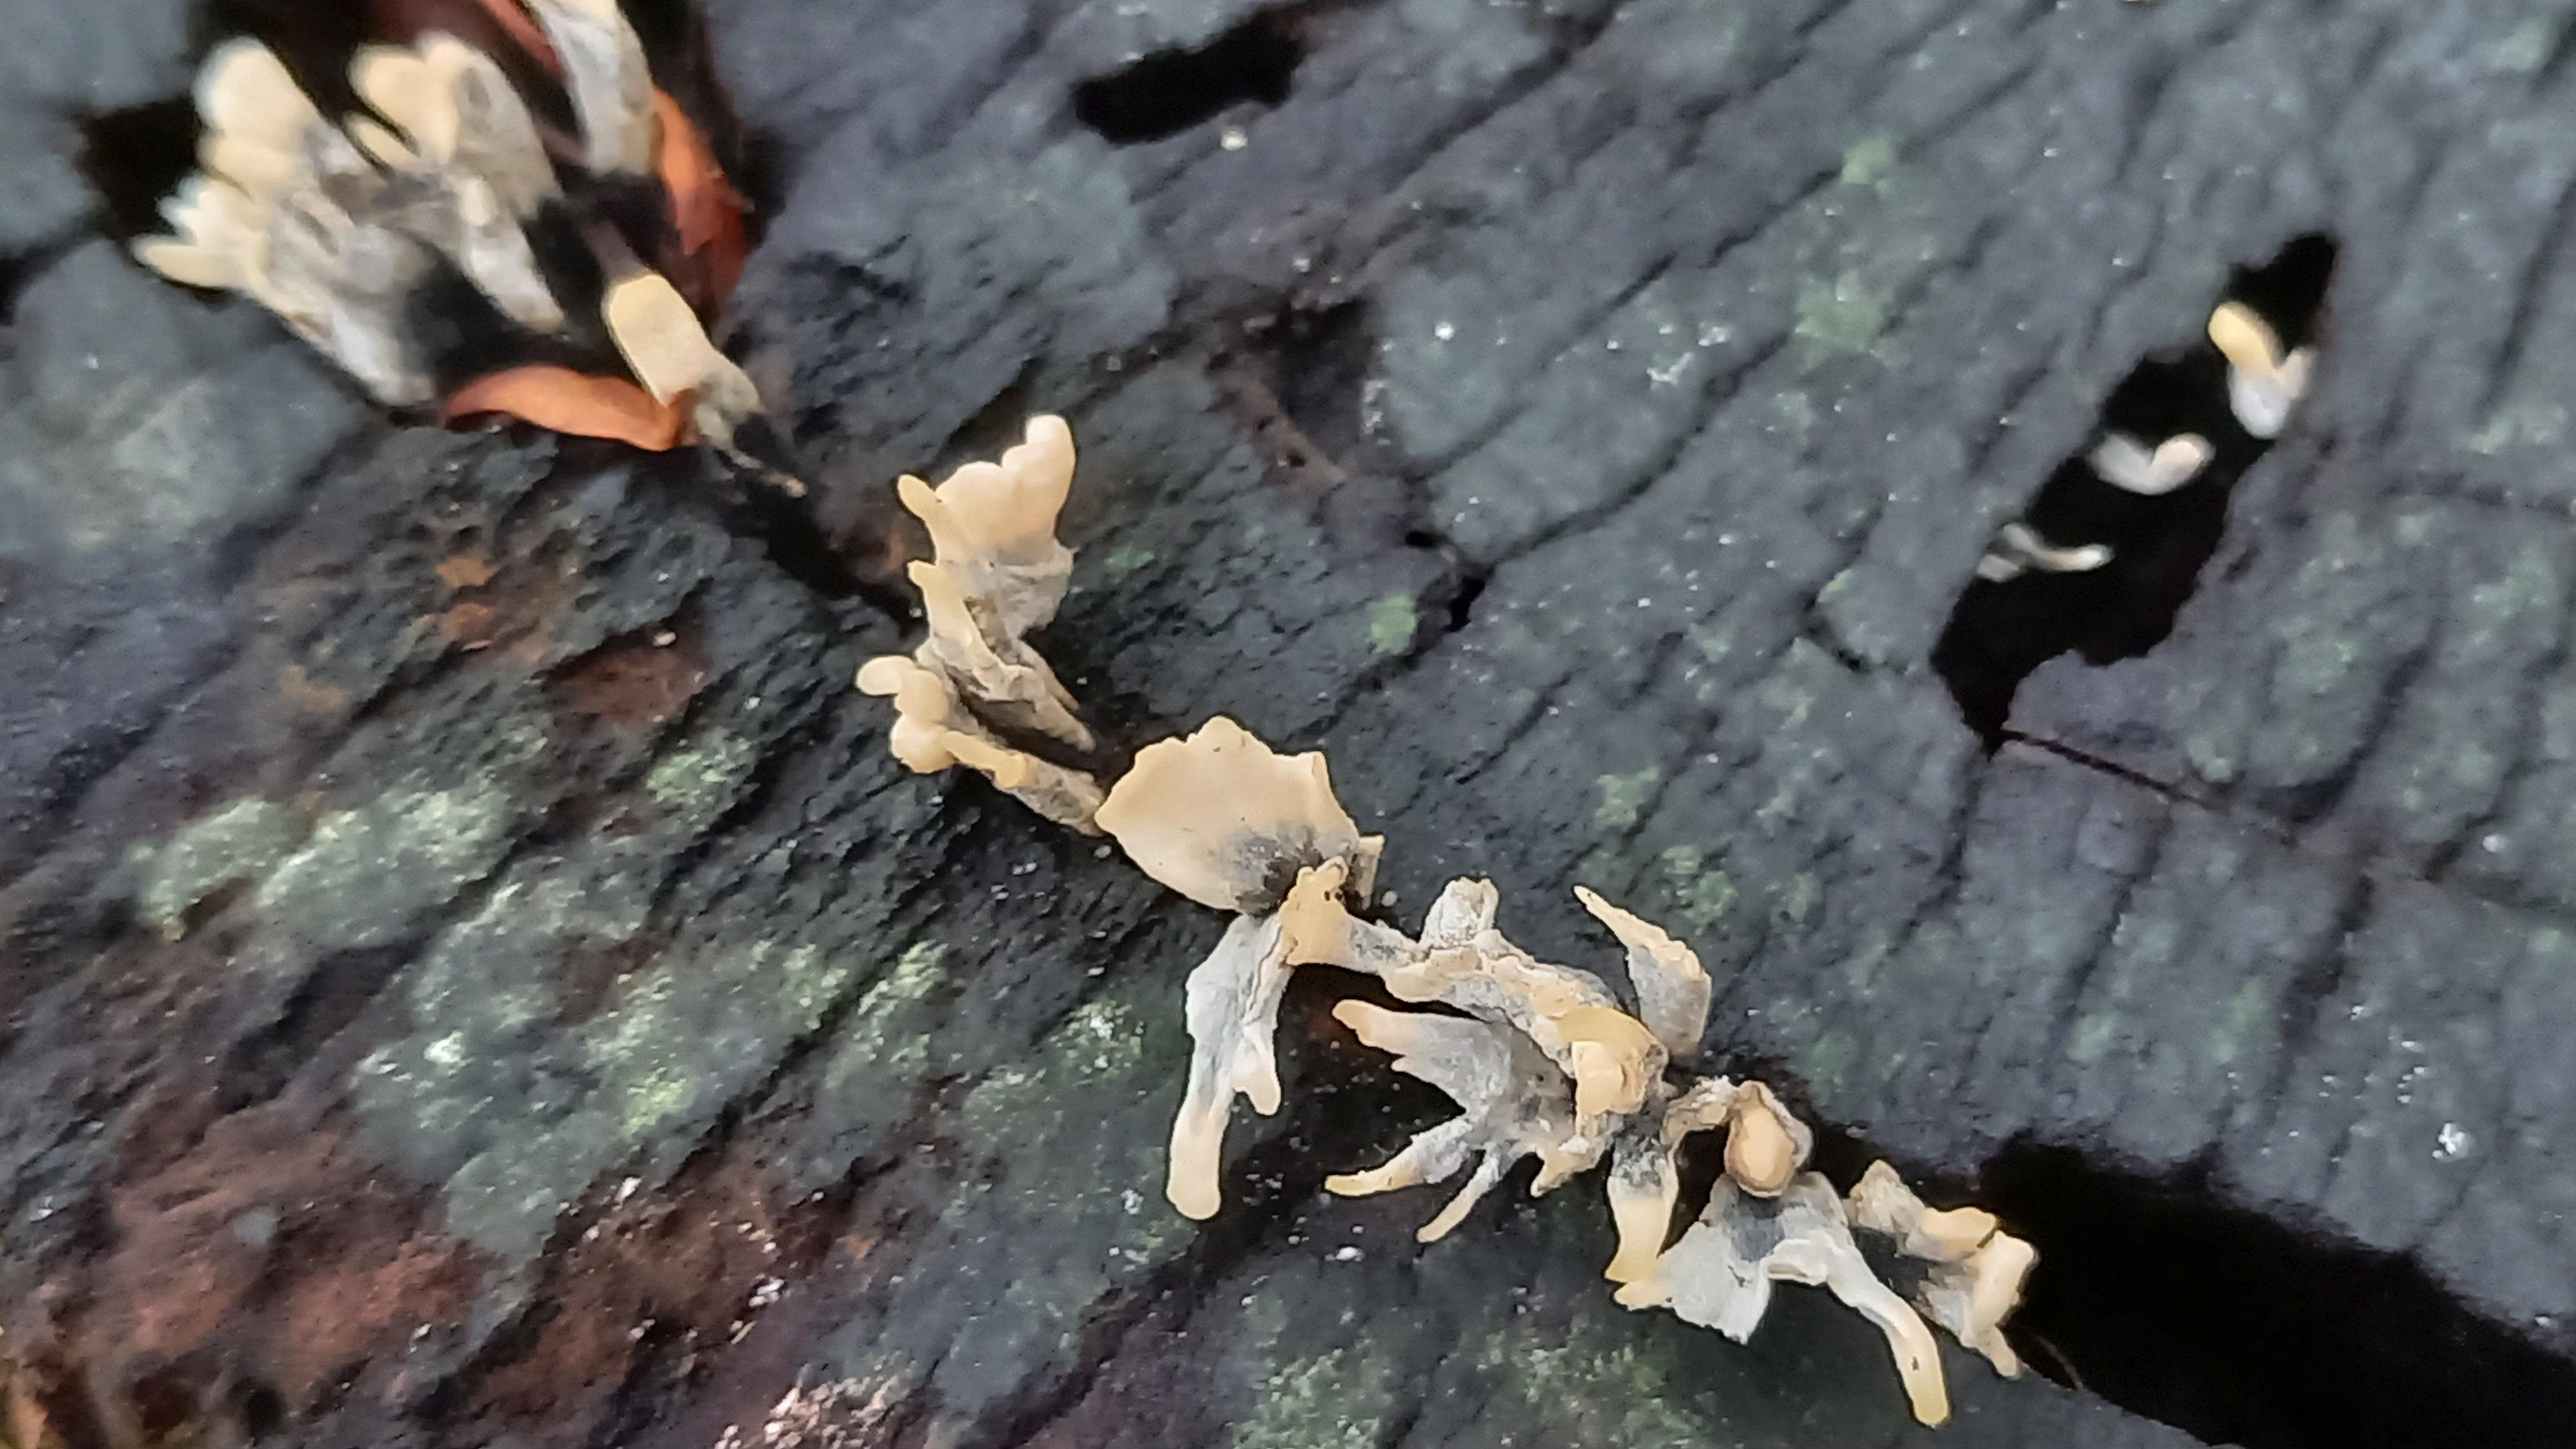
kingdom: Fungi
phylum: Ascomycota
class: Sordariomycetes
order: Xylariales
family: Xylariaceae
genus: Xylaria
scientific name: Xylaria hypoxylon
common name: grenet stødsvamp
